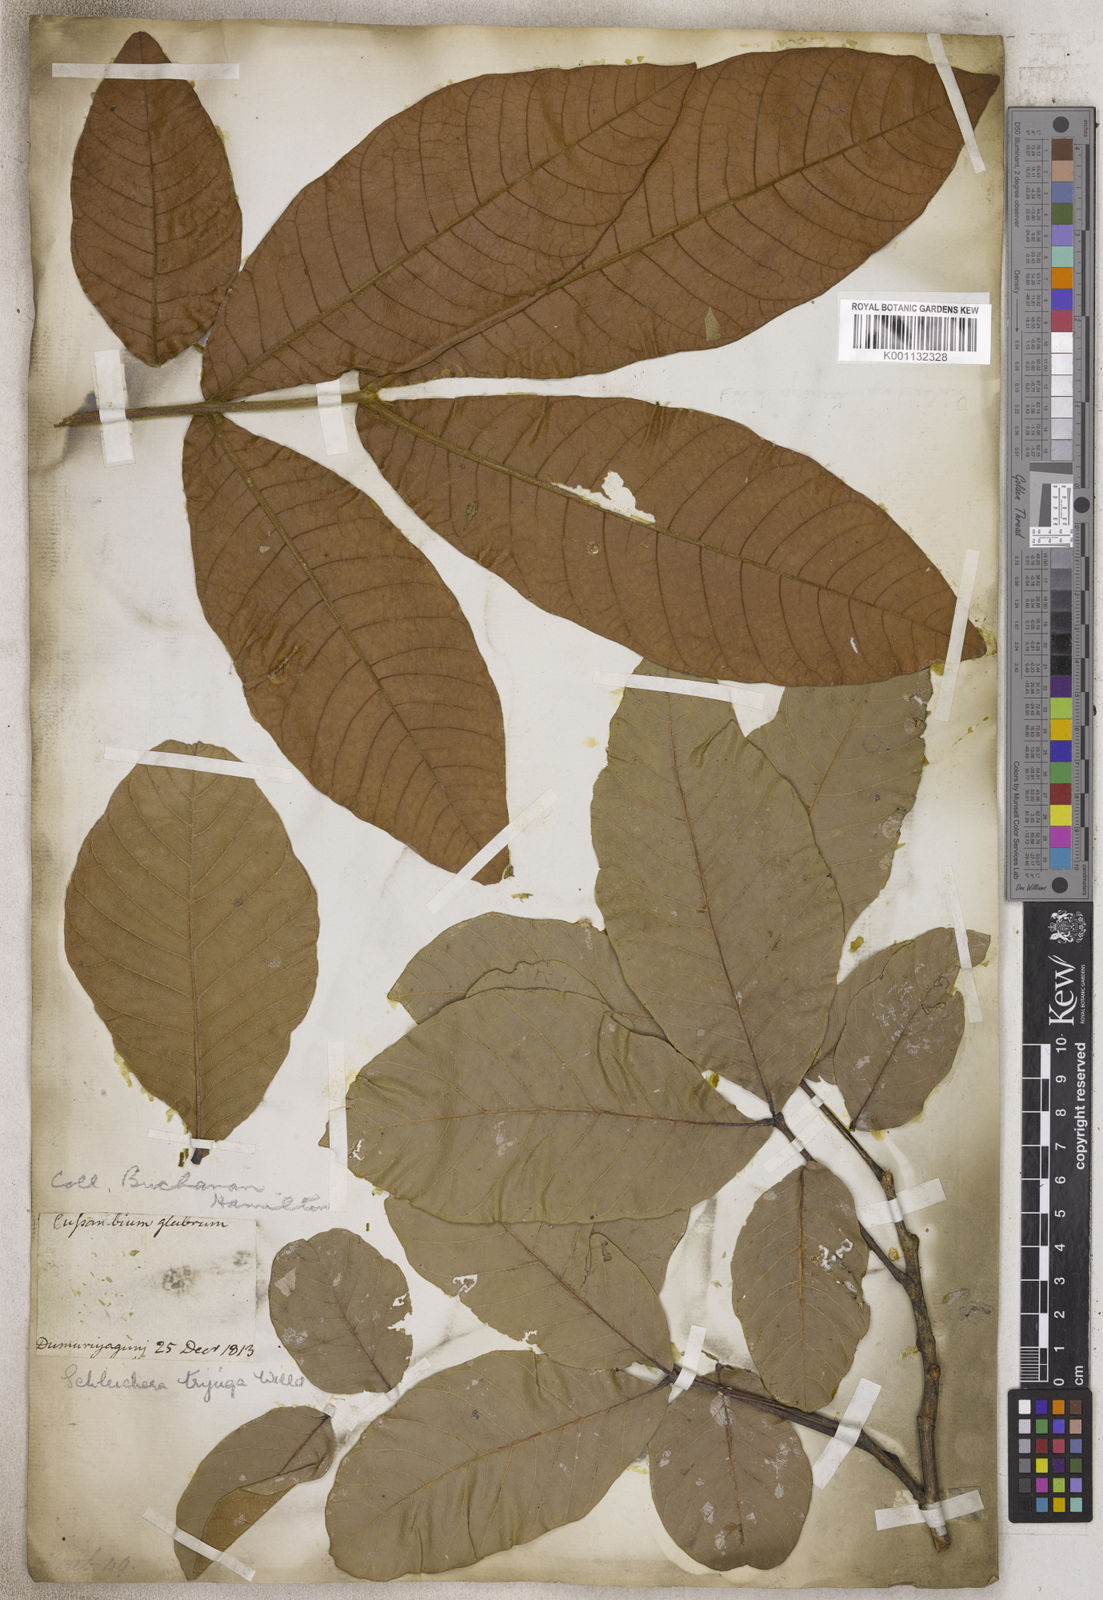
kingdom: Plantae
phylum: Tracheophyta
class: Magnoliopsida
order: Sapindales
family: Sapindaceae
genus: Schleichera
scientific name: Schleichera
